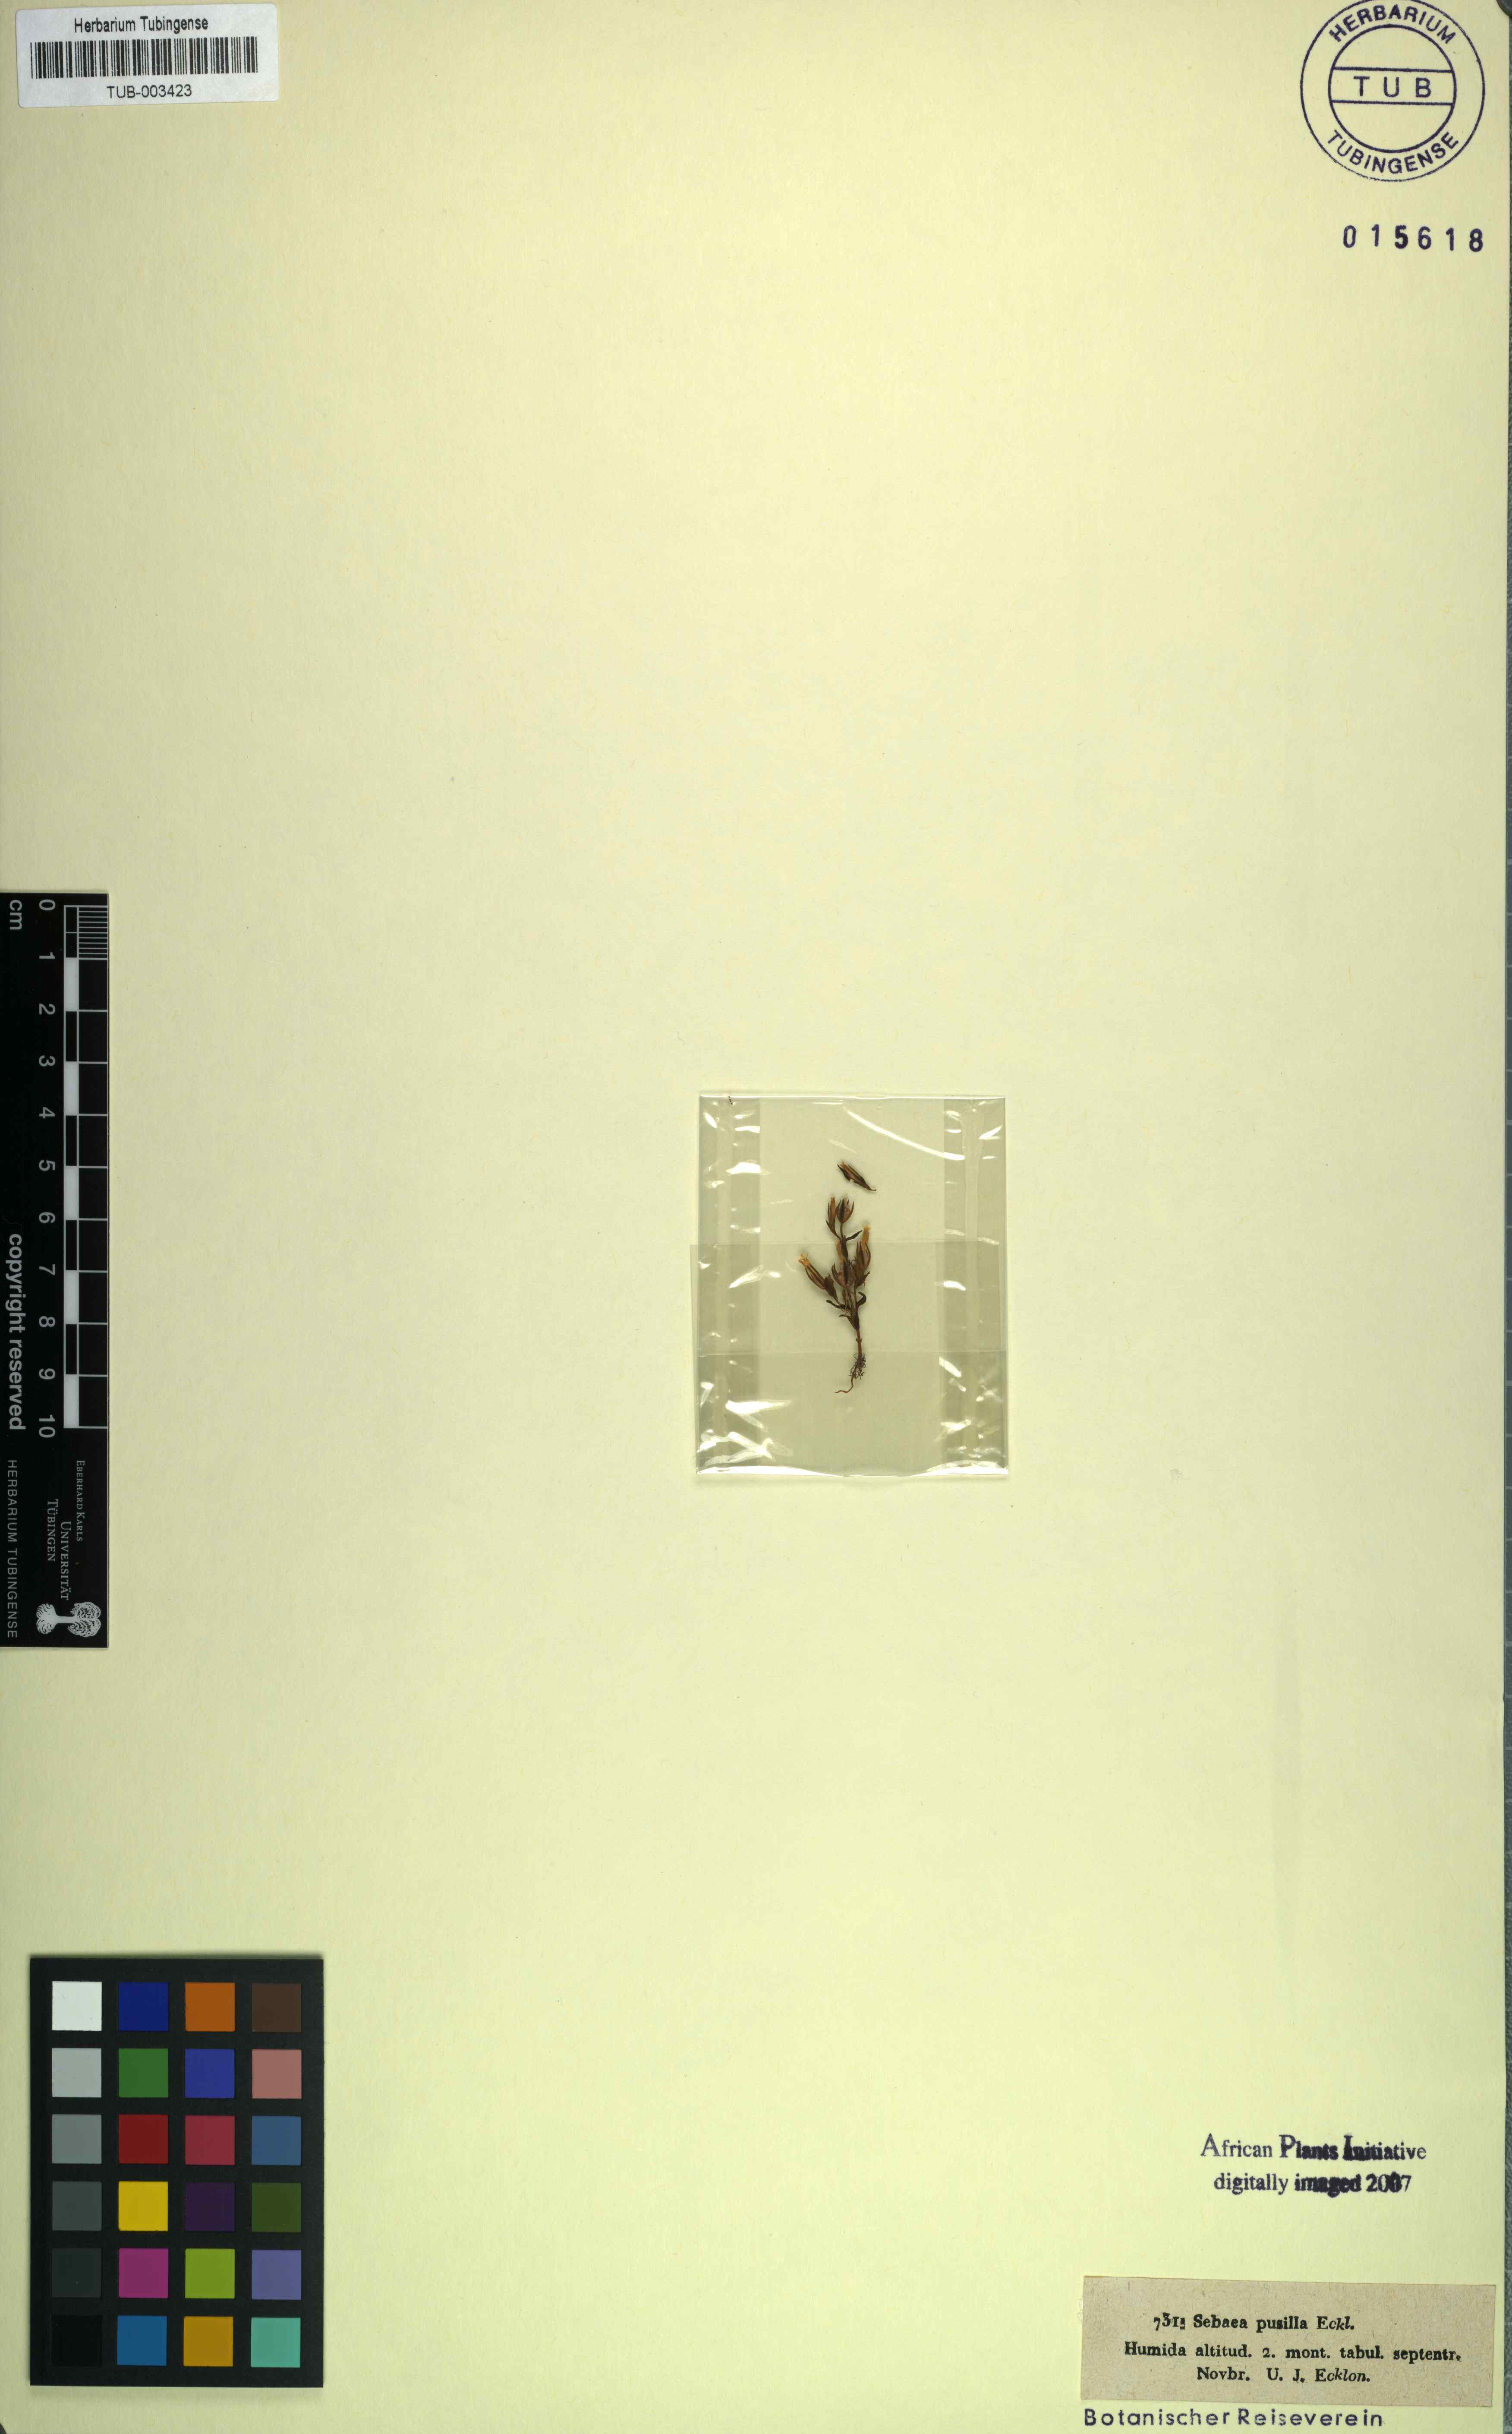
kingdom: Plantae
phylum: Tracheophyta
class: Magnoliopsida
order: Gentianales
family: Gentianaceae
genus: Sebaea
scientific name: Sebaea pusilla
